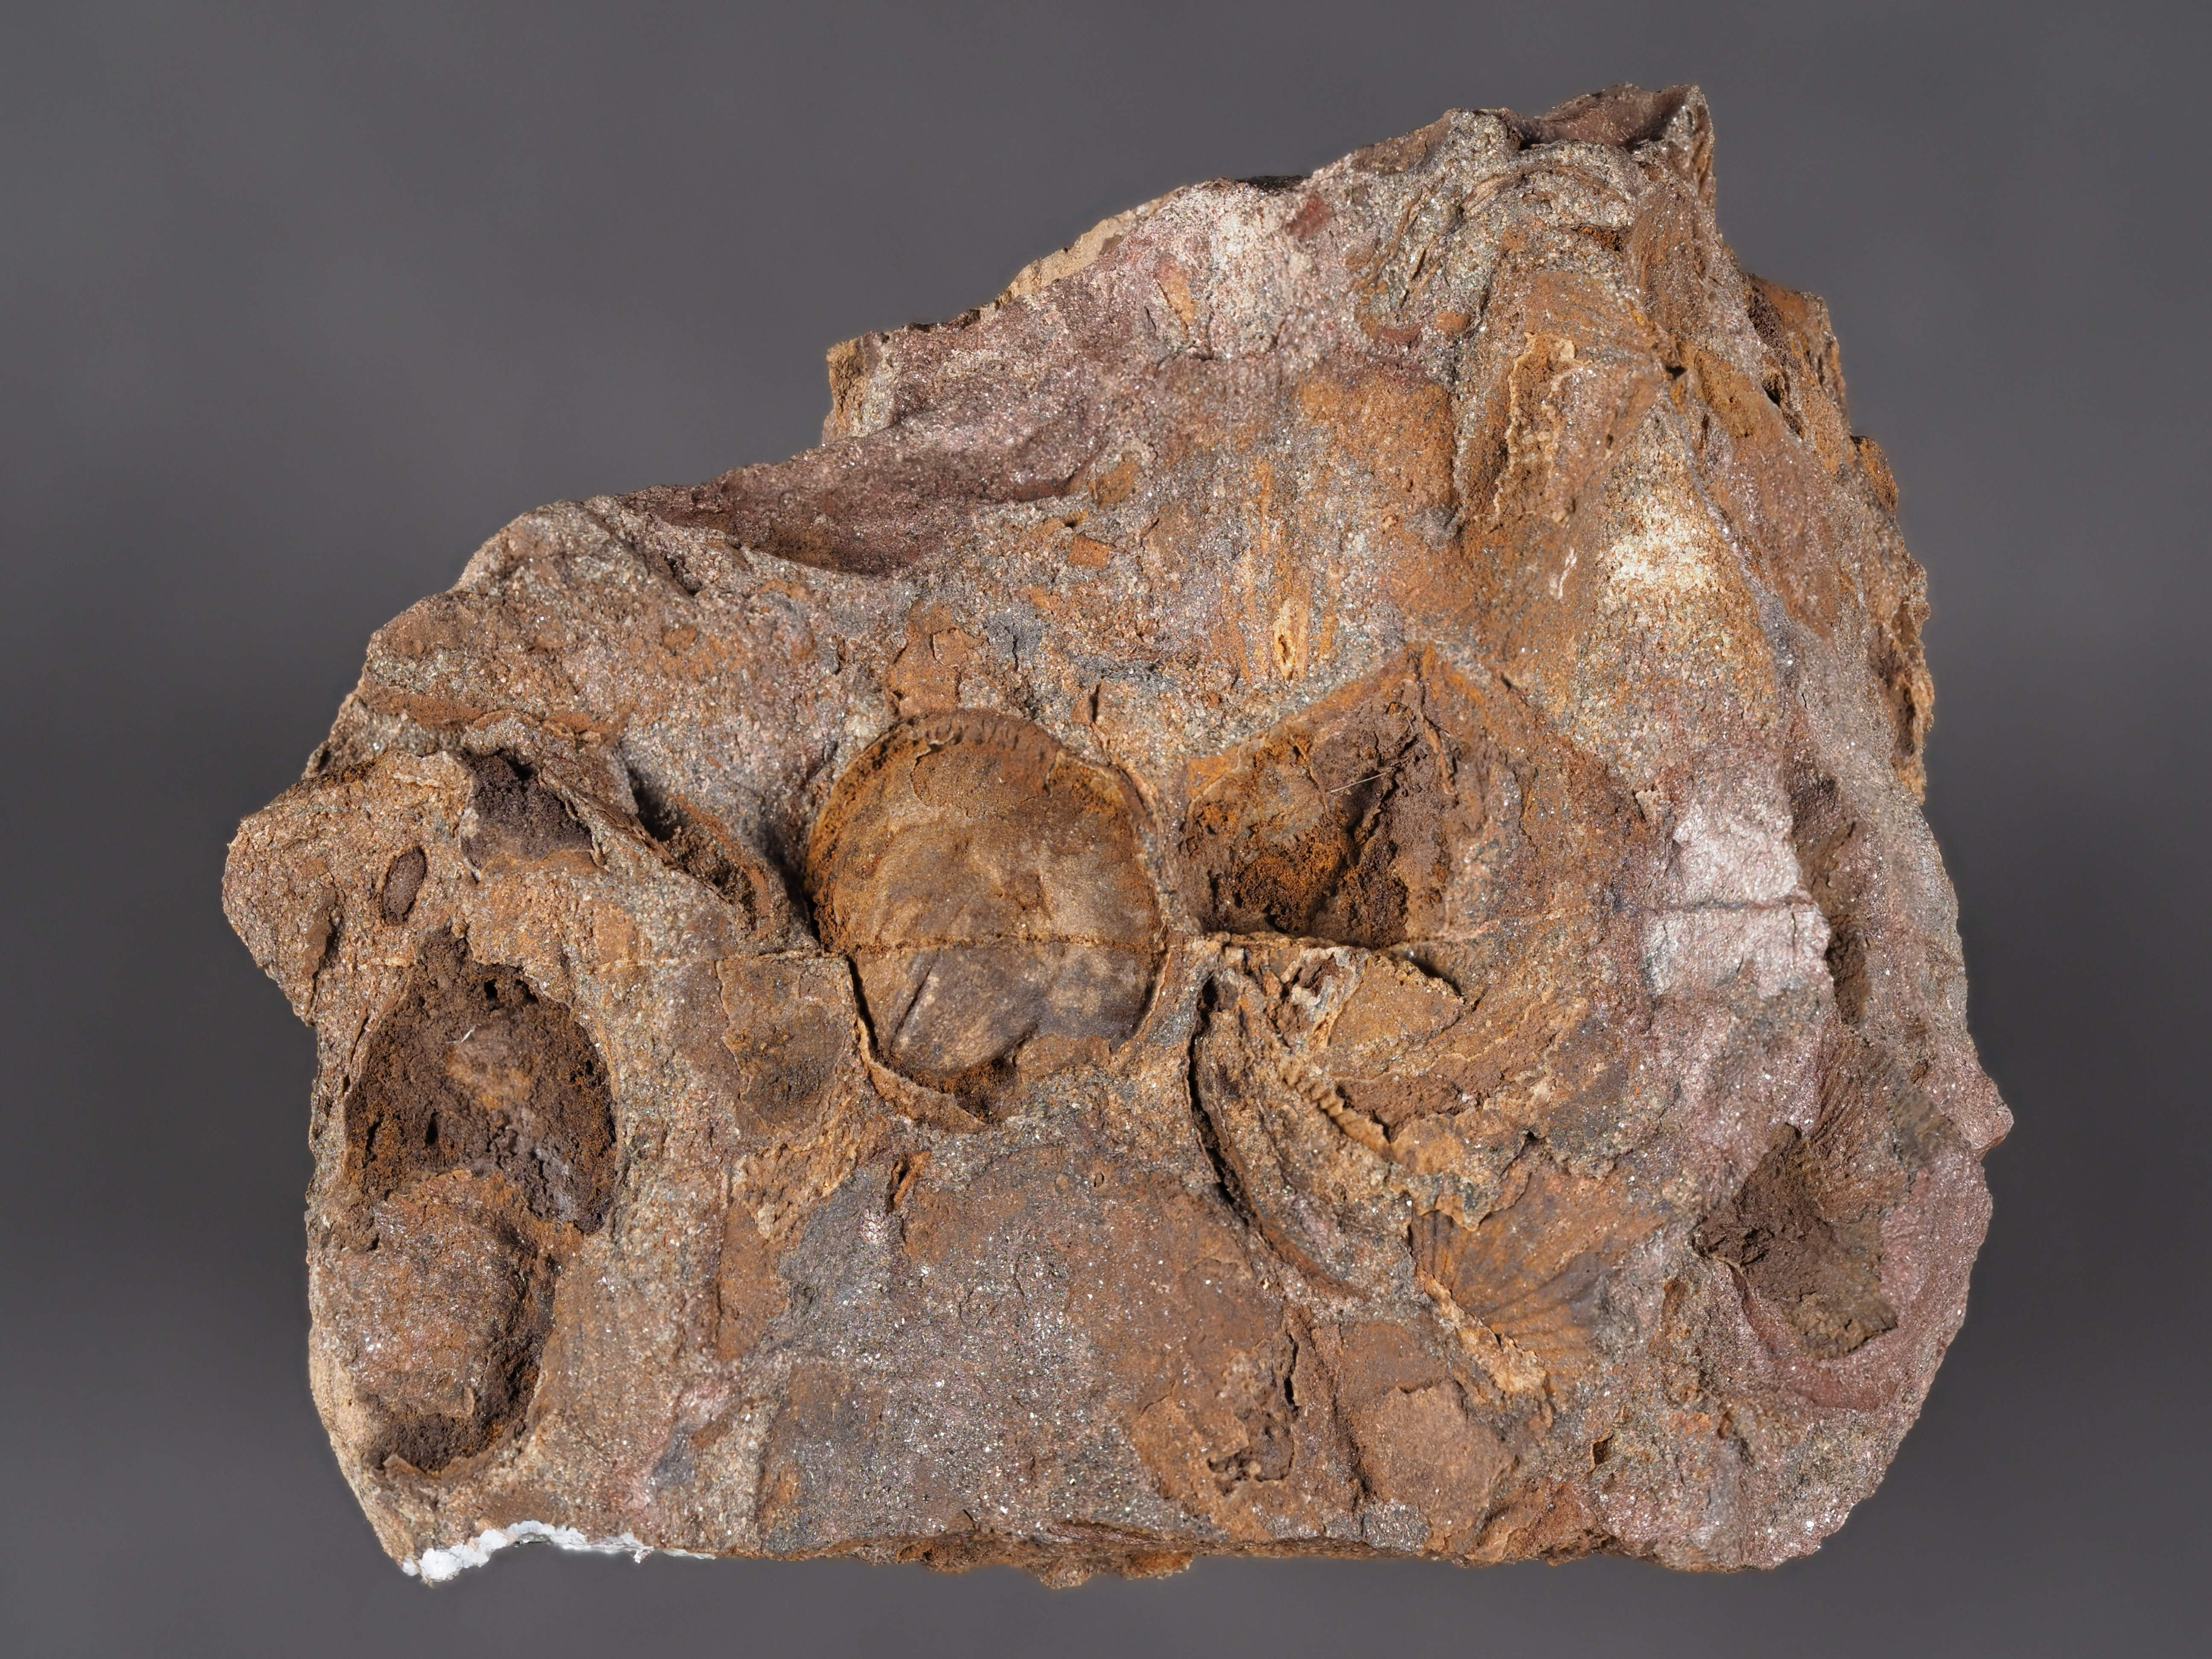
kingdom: Animalia
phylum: Brachiopoda
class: Rhynchonellata
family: Anoplothecidae
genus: Anoplotheca
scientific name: Anoplotheca
